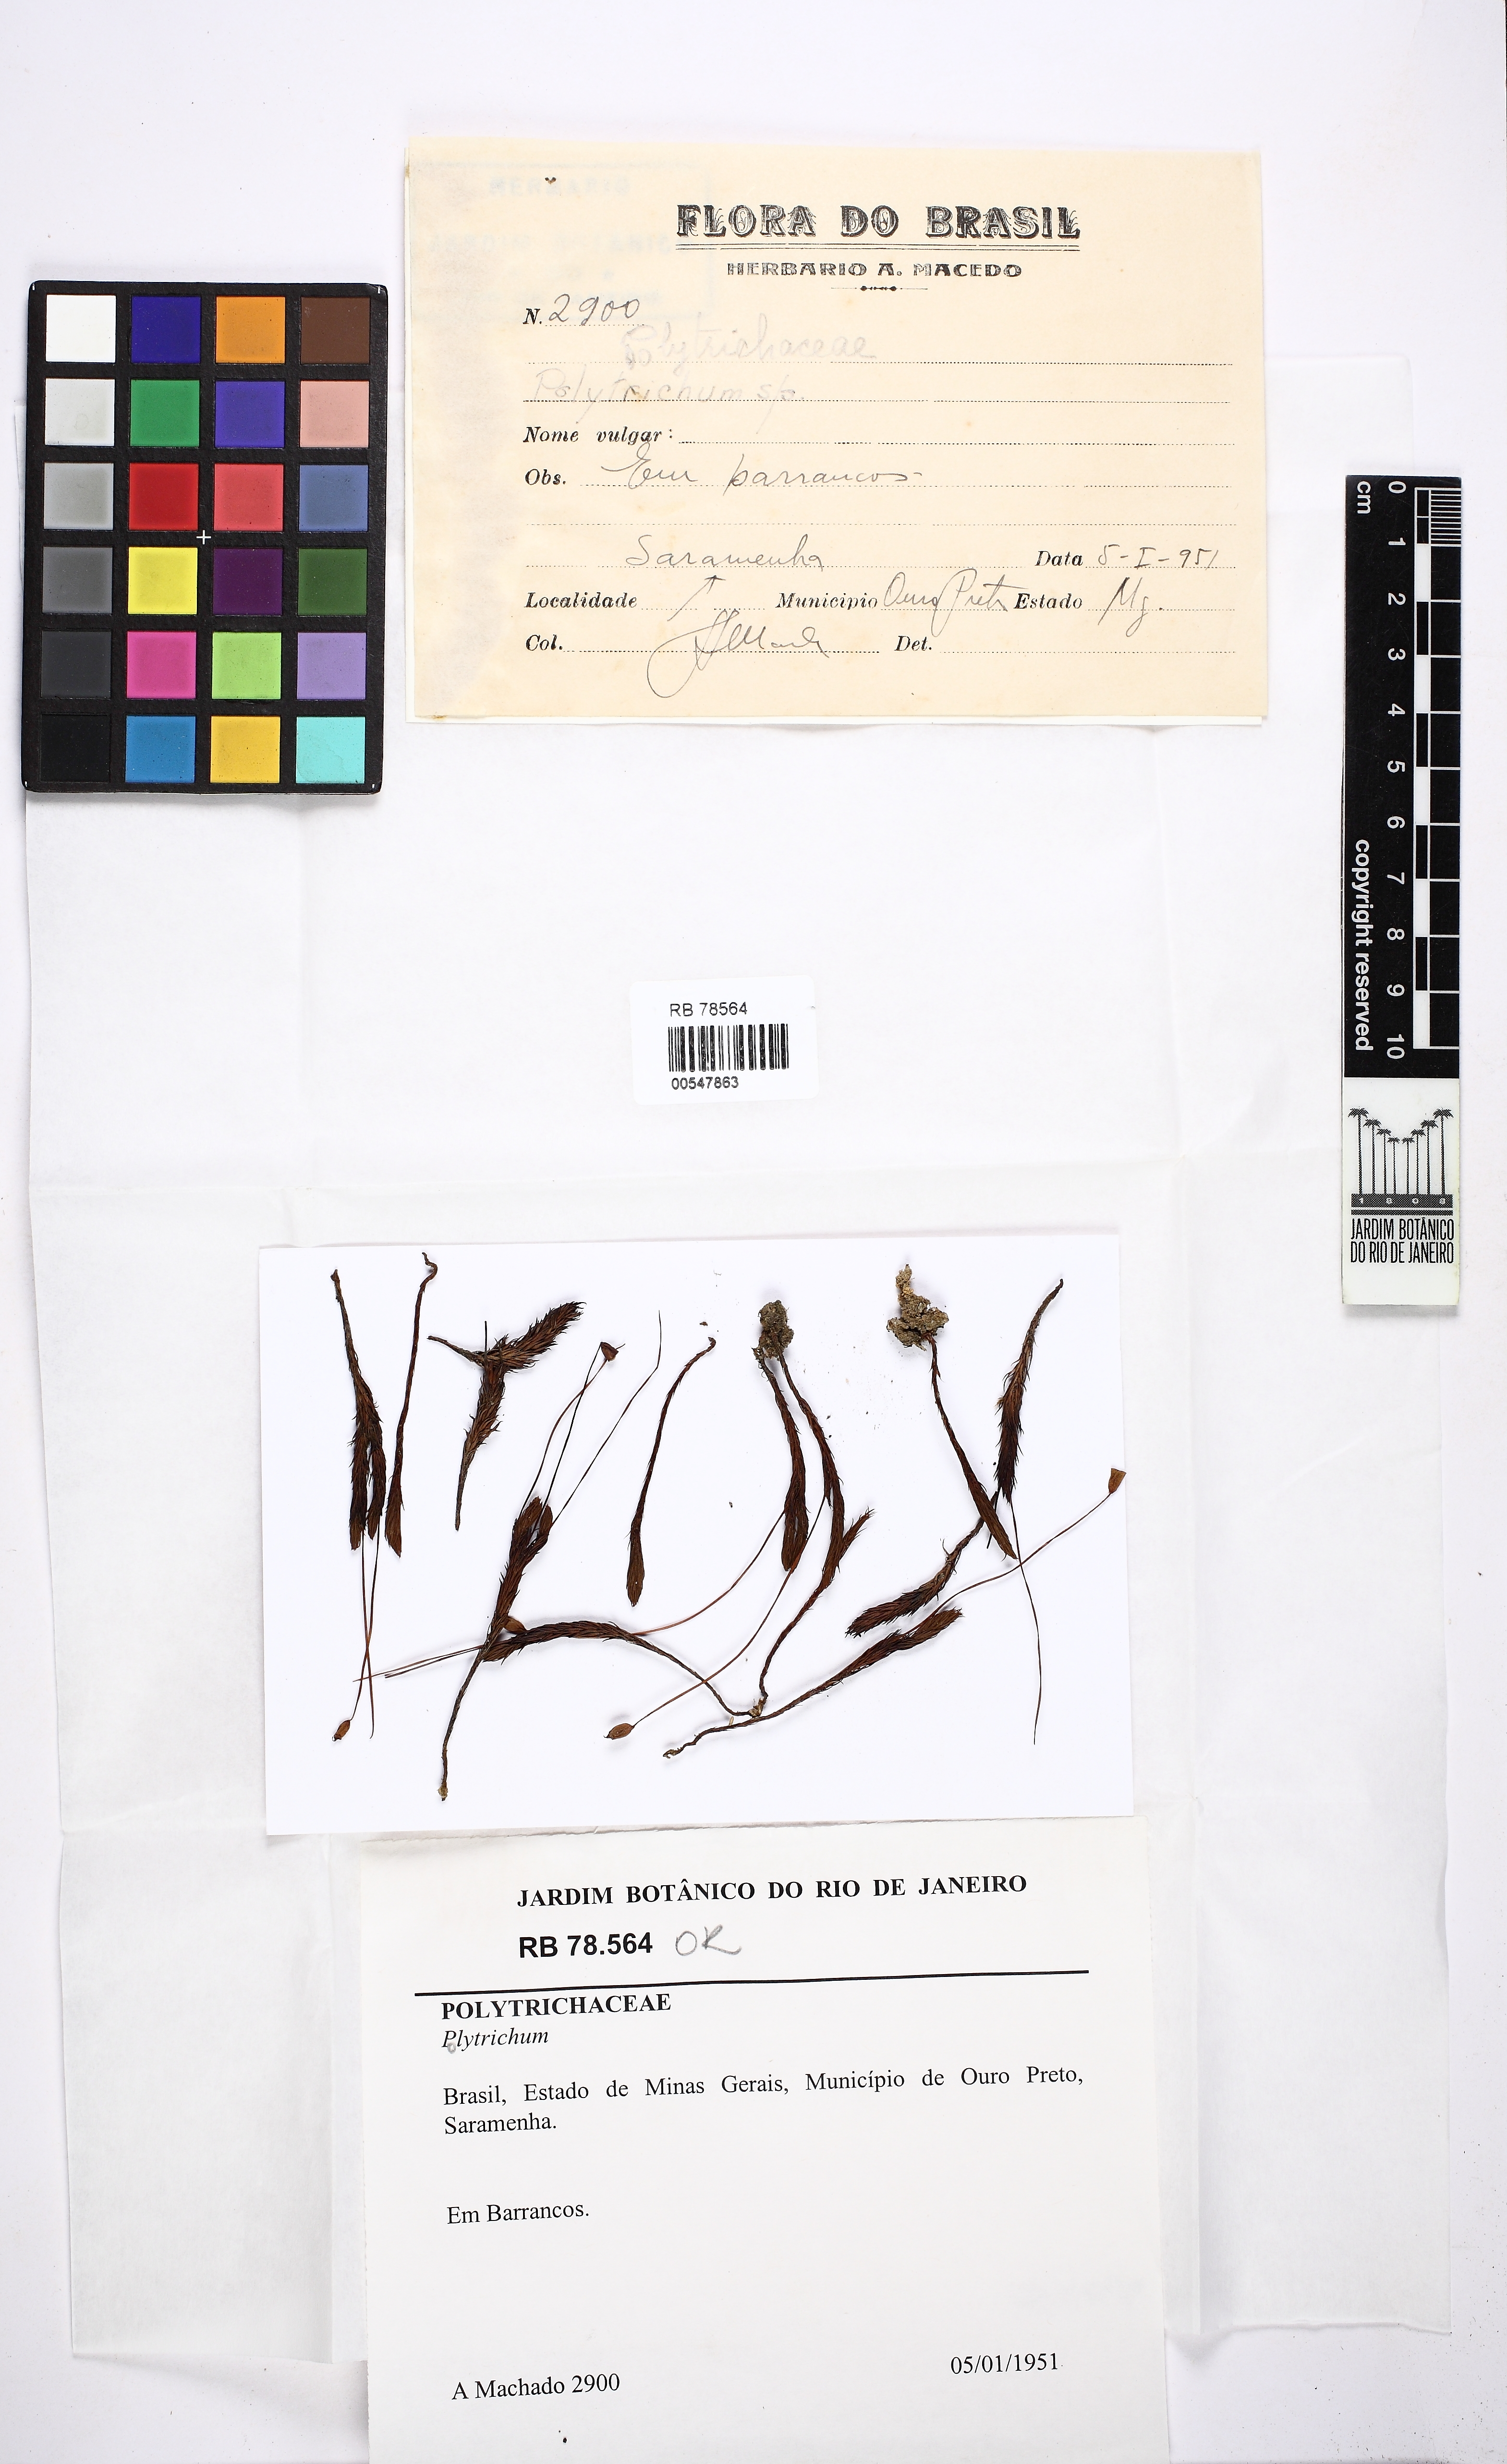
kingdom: Plantae
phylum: Bryophyta
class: Polytrichopsida
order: Polytrichales
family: Polytrichaceae
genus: Polytrichadelphus
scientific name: Polytrichadelphus pseudopolytrichum
